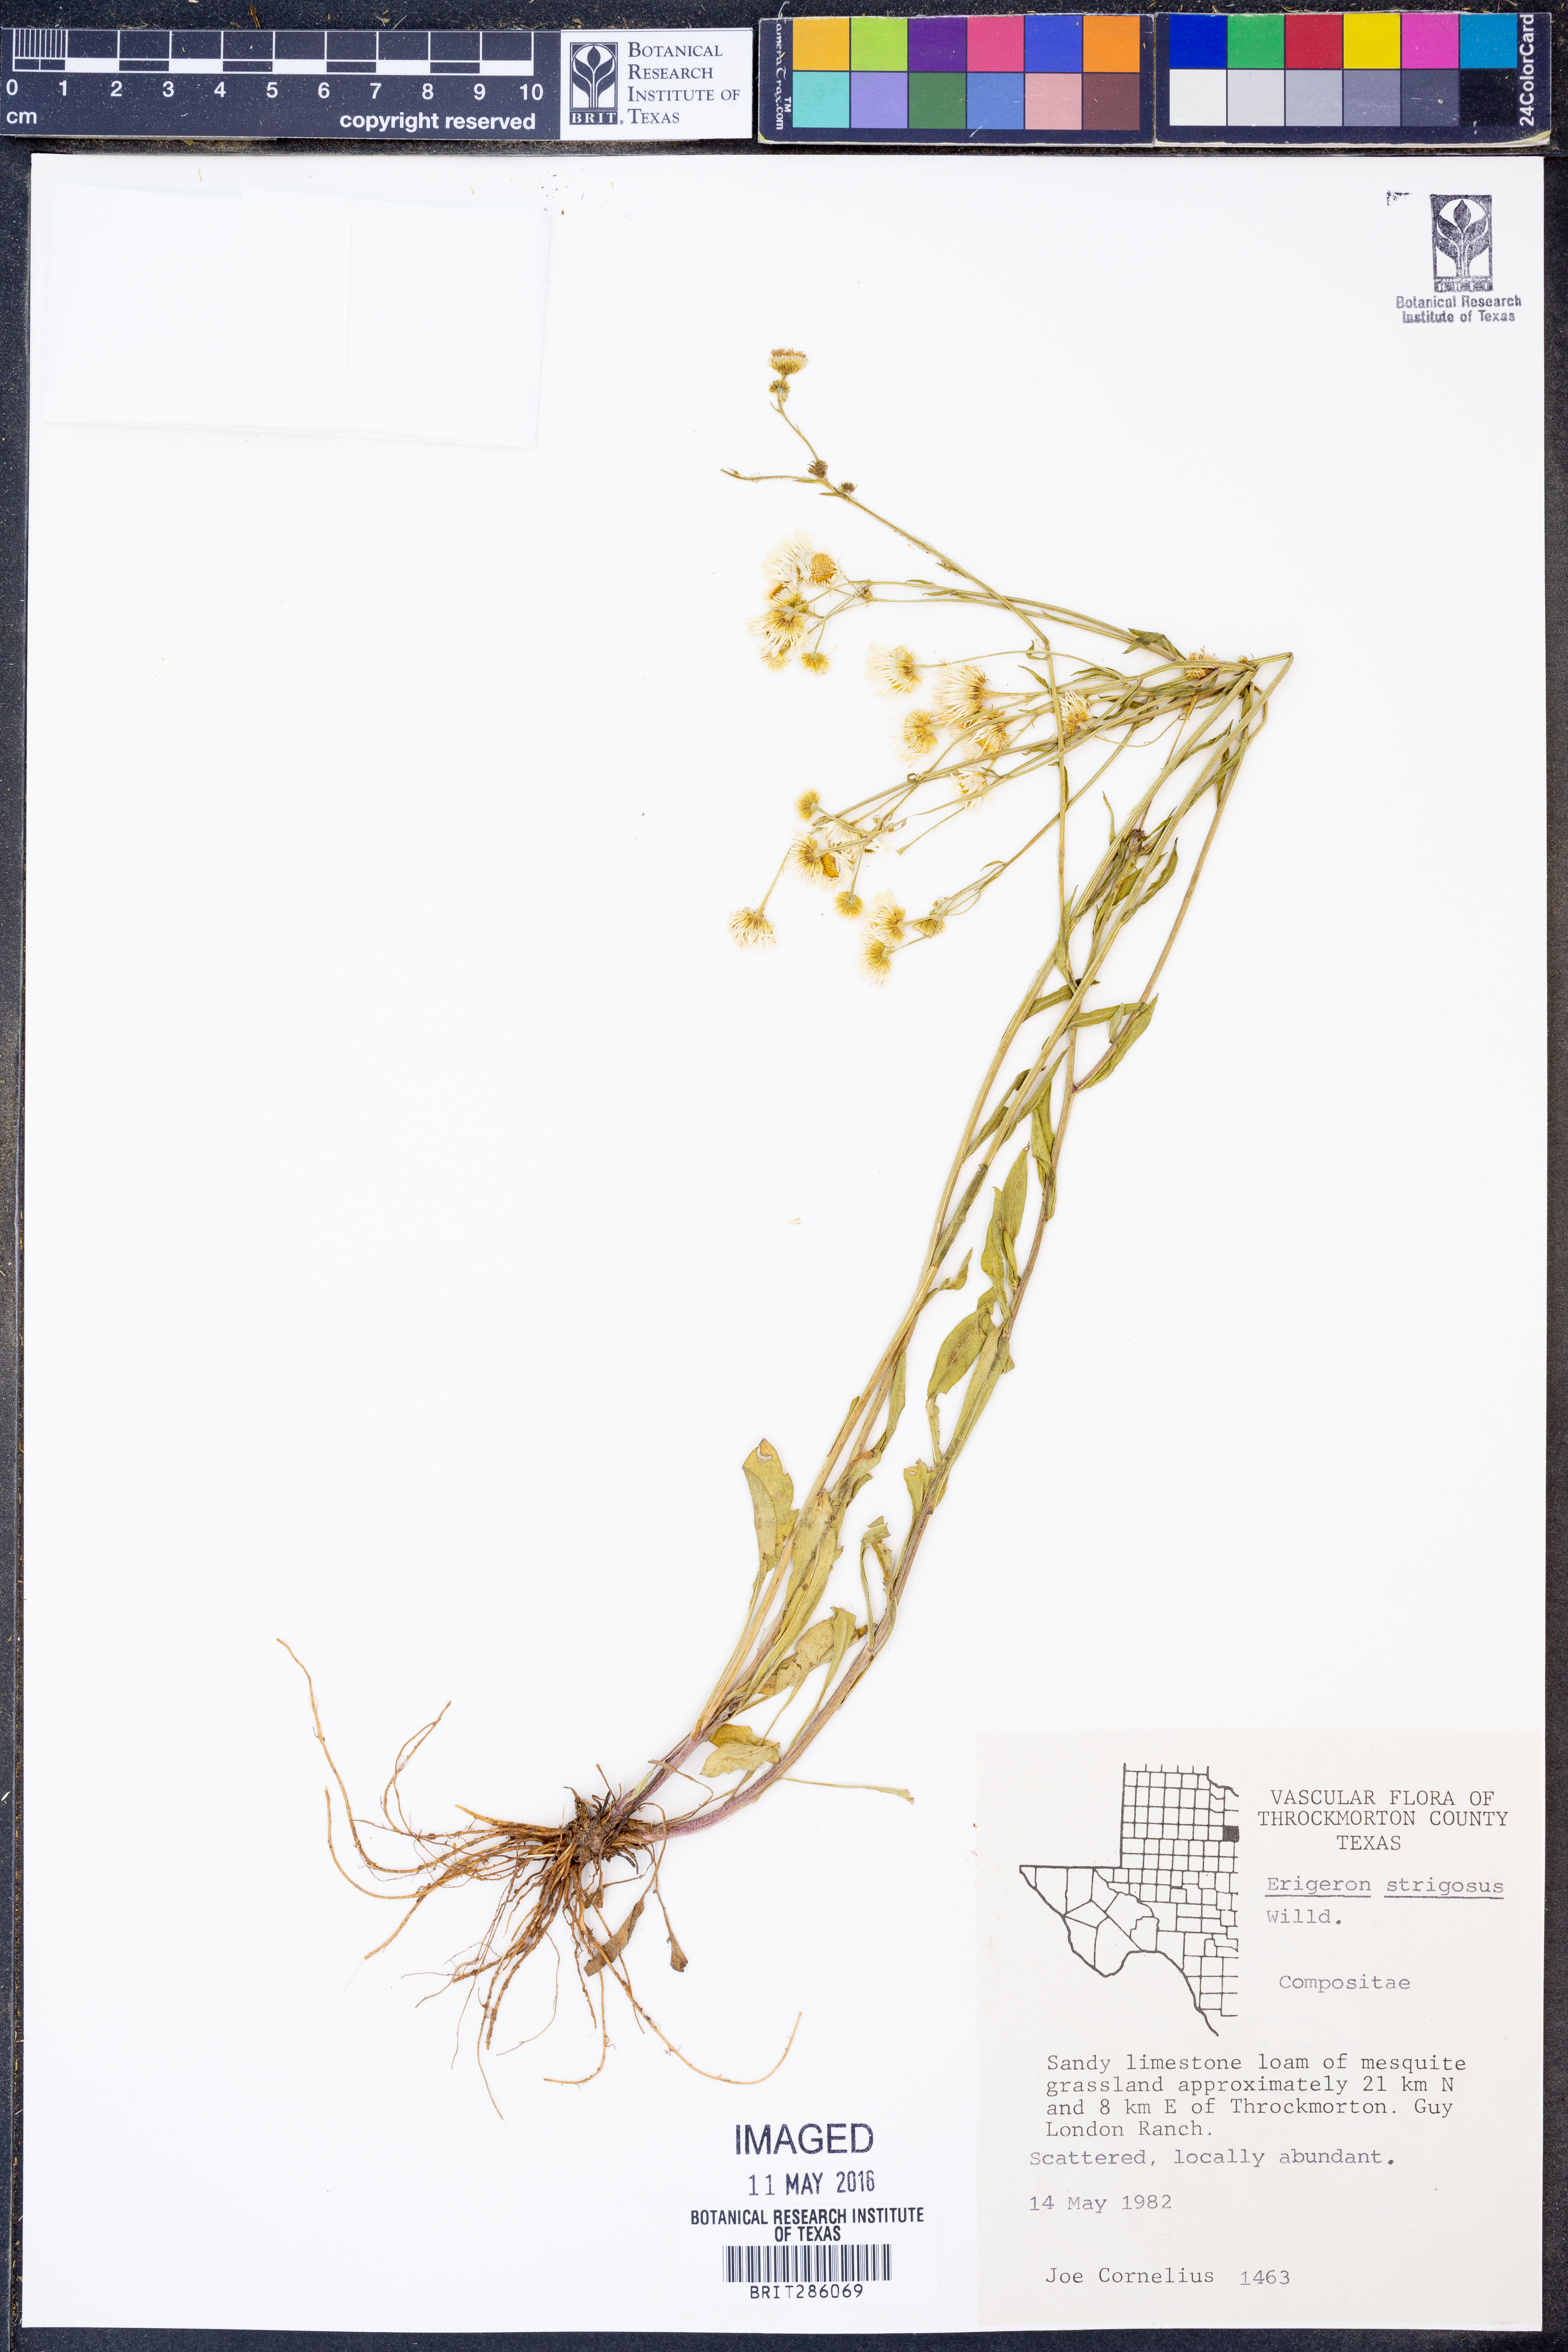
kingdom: Plantae
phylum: Tracheophyta
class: Magnoliopsida
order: Asterales
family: Asteraceae
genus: Erigeron
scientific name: Erigeron strigosus
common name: Common eastern fleabane
